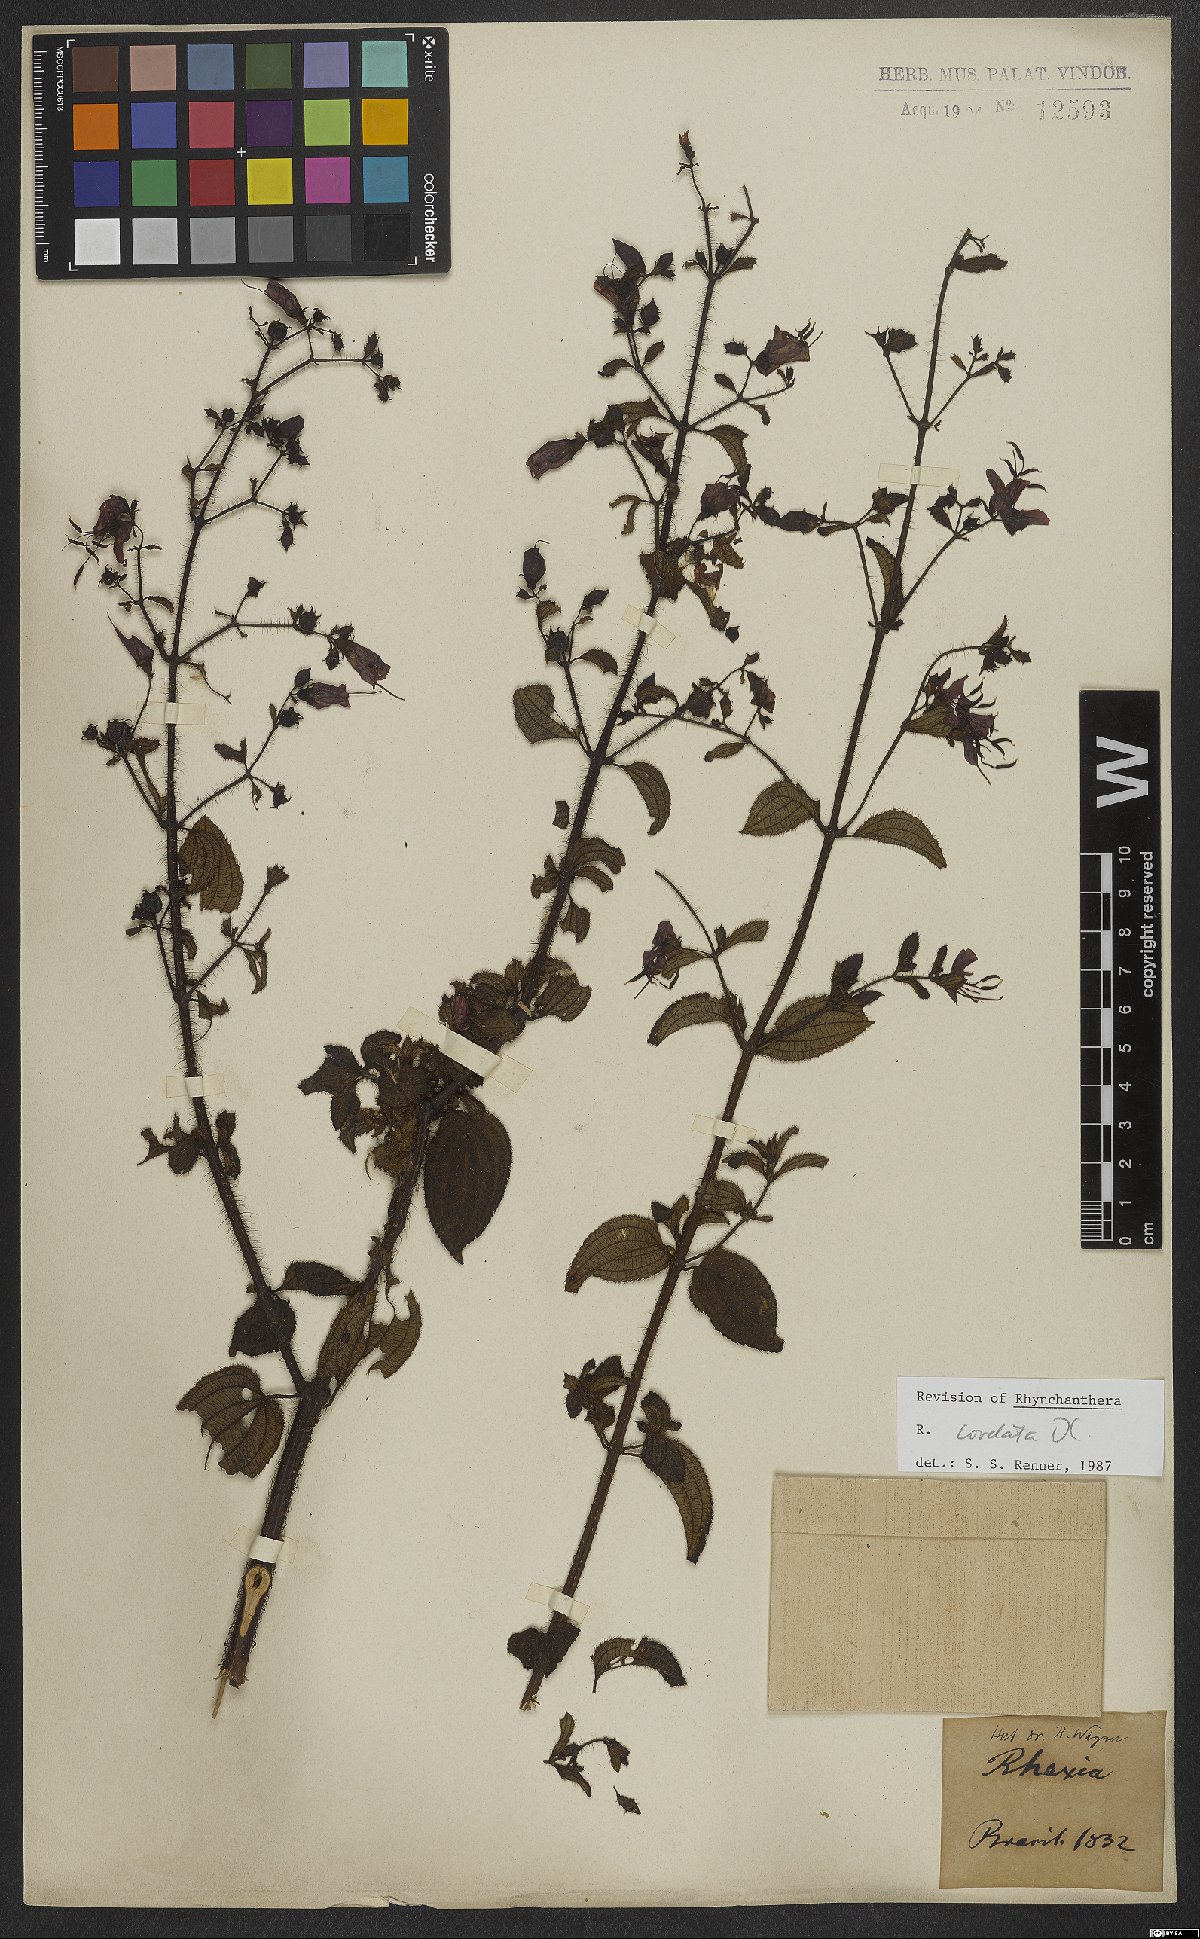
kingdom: Plantae
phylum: Tracheophyta
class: Magnoliopsida
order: Myrtales
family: Melastomataceae
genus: Rhynchanthera
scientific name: Rhynchanthera cordata
